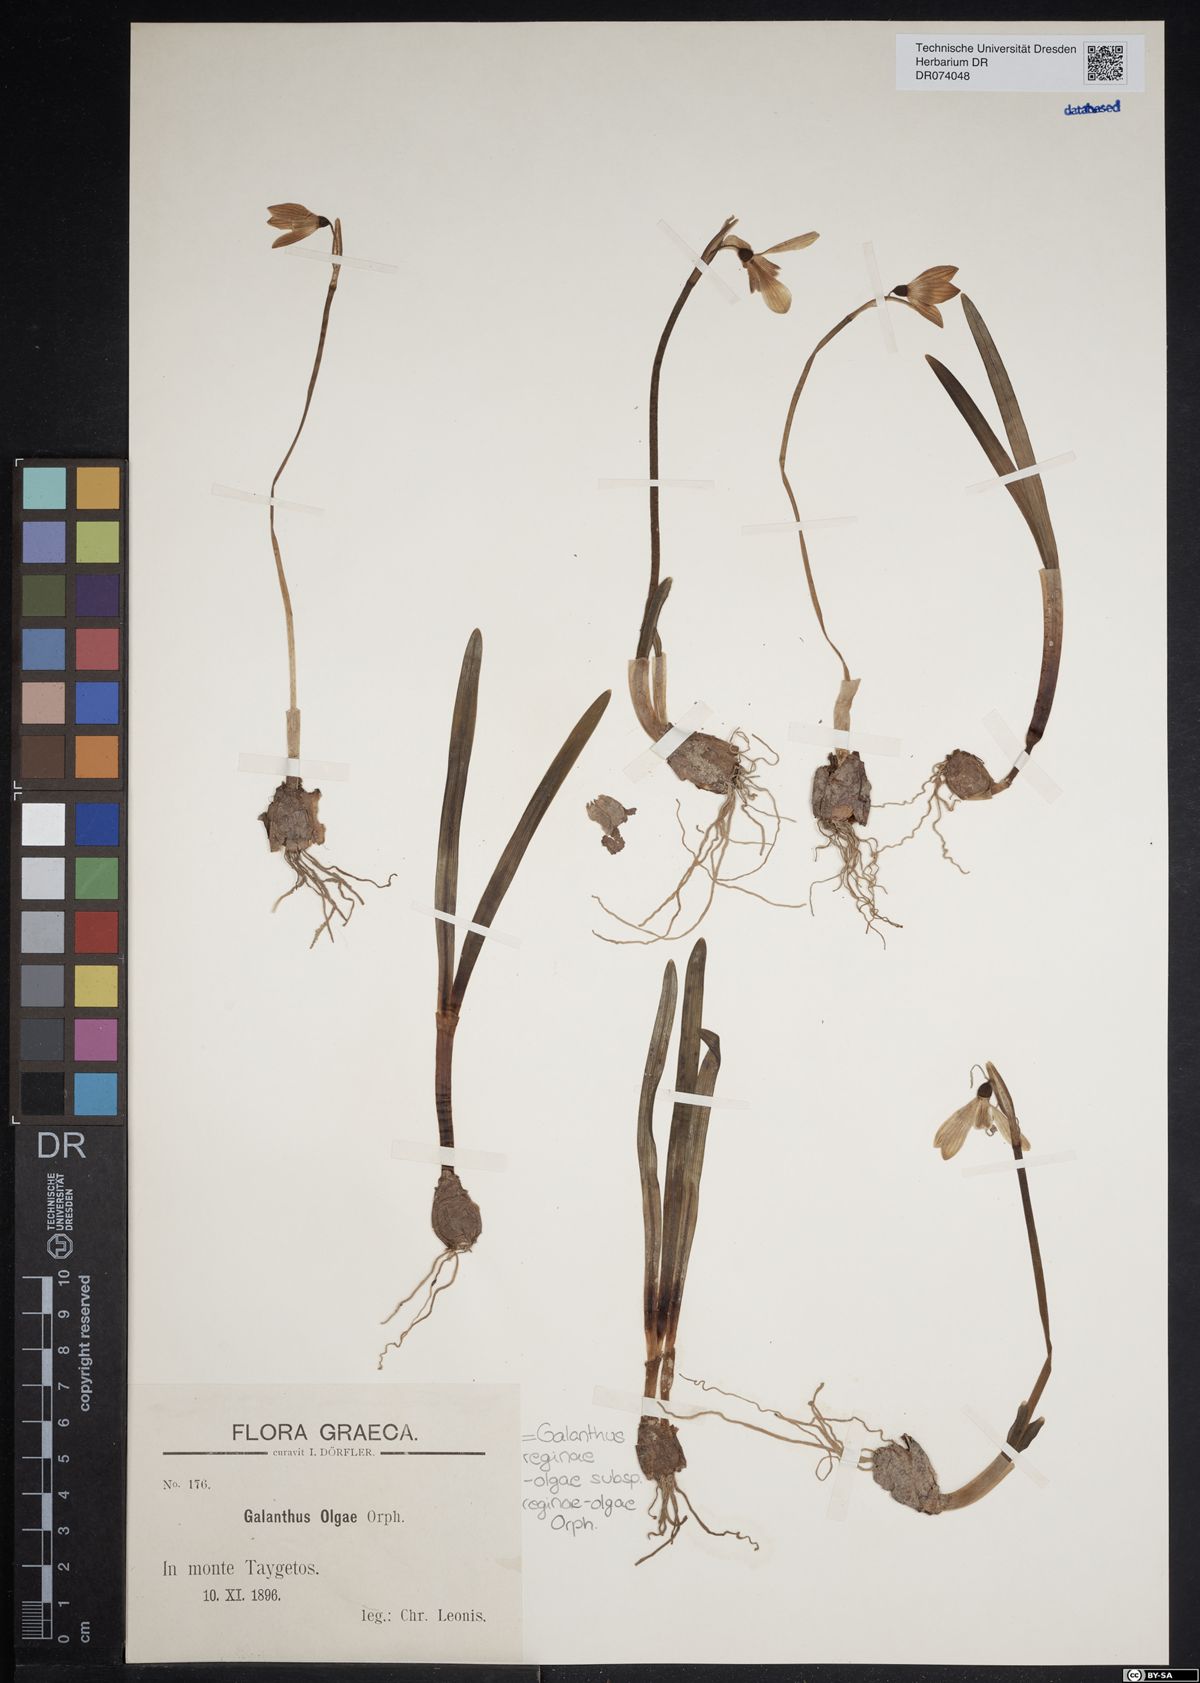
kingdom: Plantae
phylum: Tracheophyta
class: Liliopsida
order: Asparagales
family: Amaryllidaceae
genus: Galanthus
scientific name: Galanthus reginae-olgae
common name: Queen olga's snowdrop
